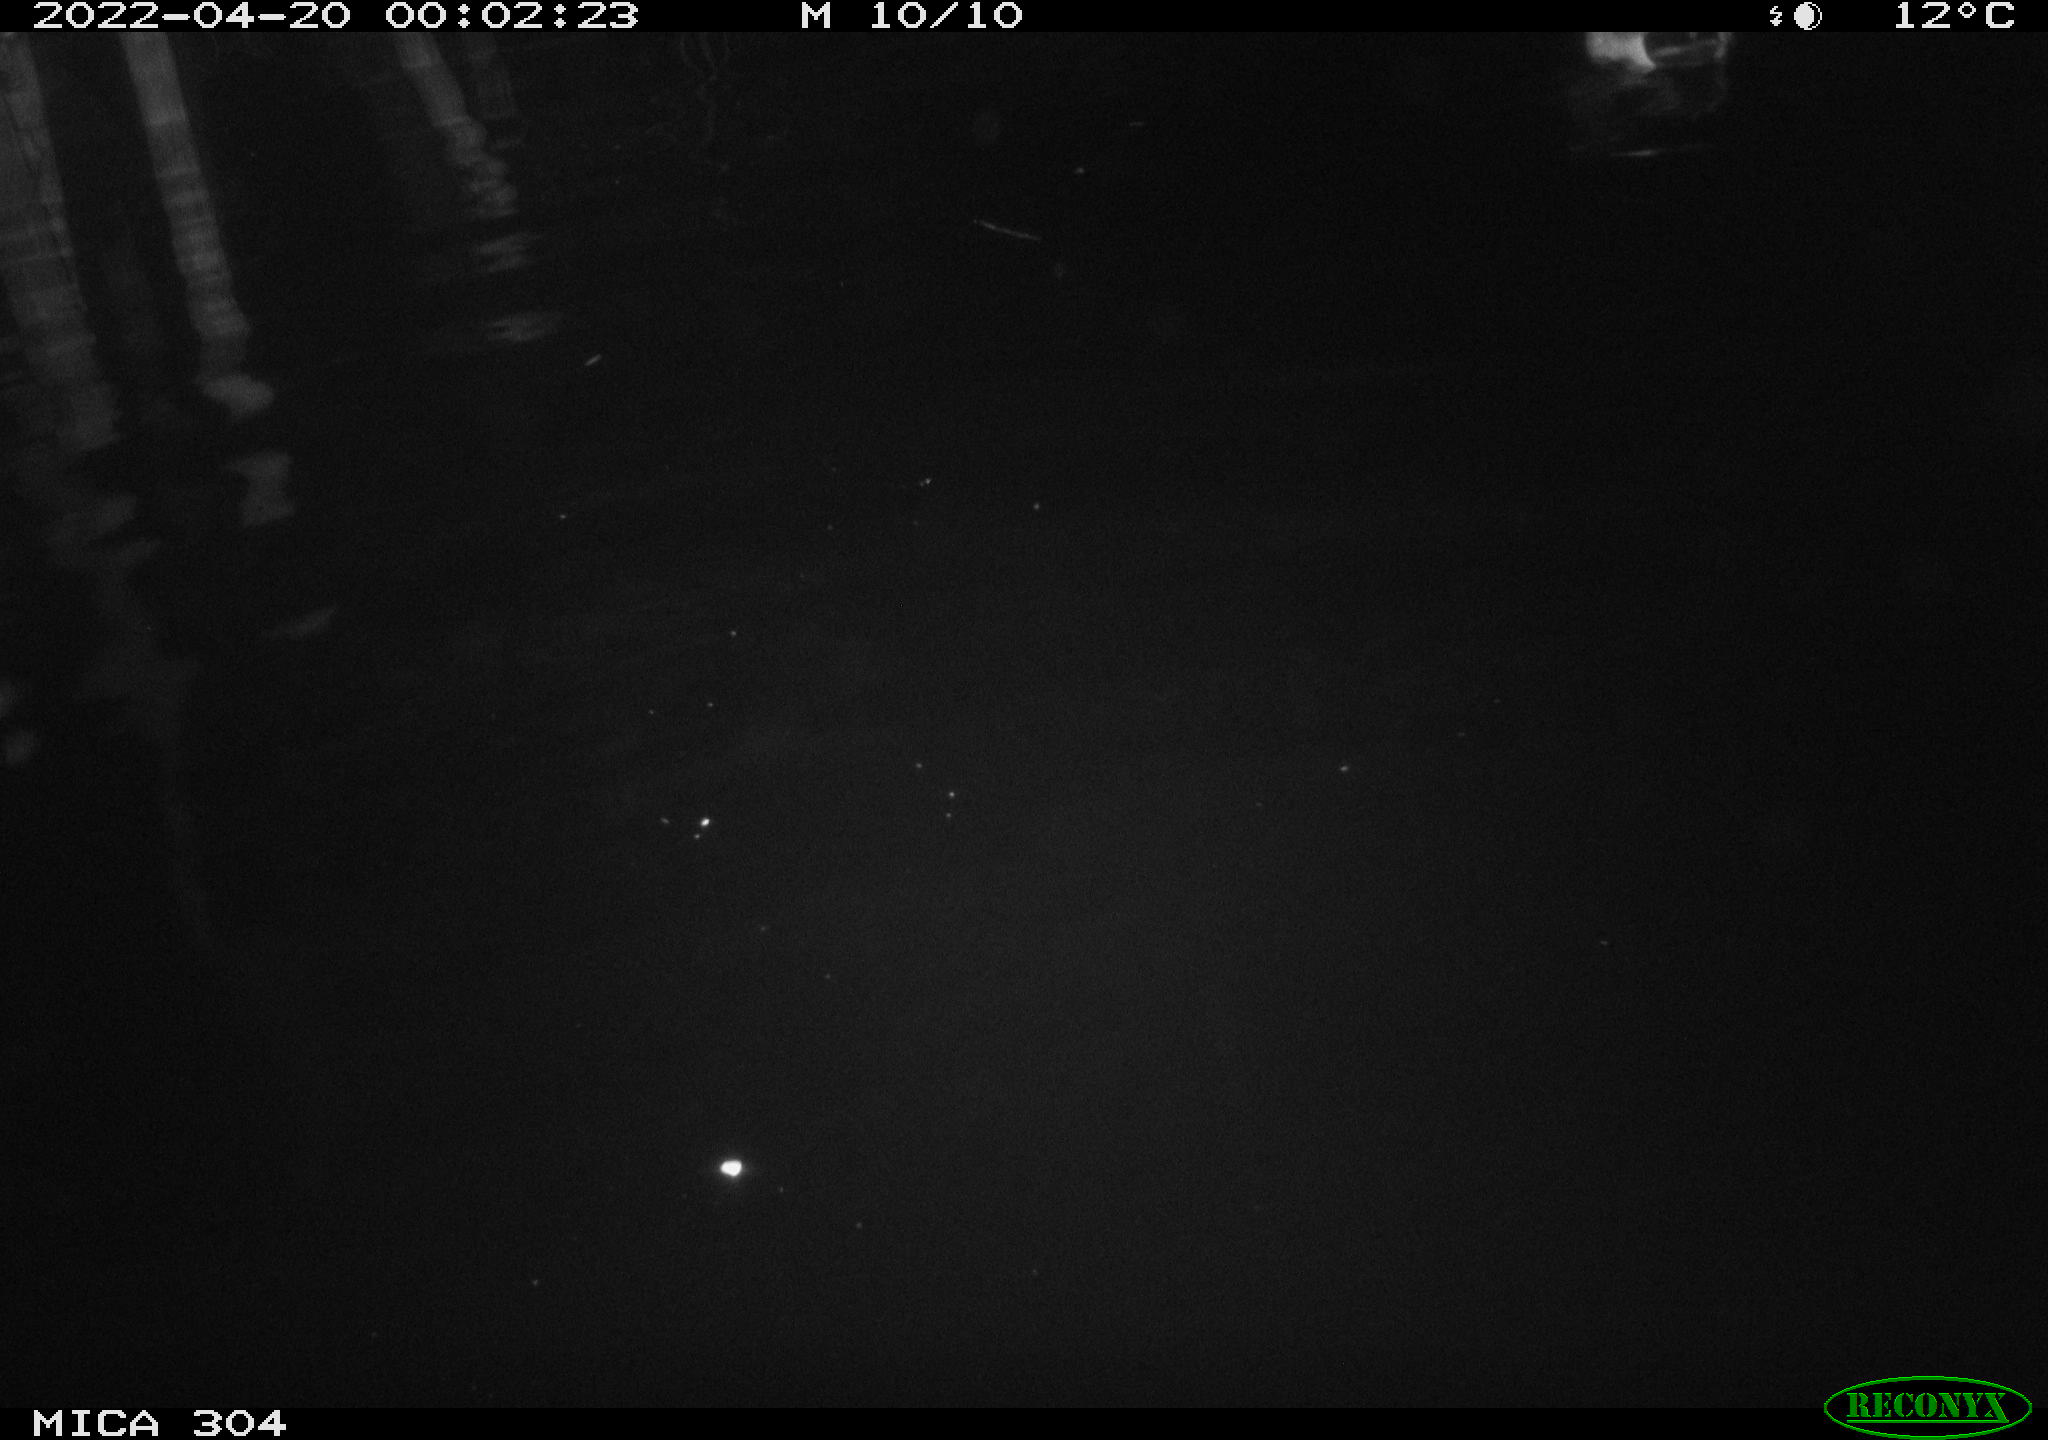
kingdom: Animalia
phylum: Chordata
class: Aves
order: Anseriformes
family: Anatidae
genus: Anas
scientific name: Anas platyrhynchos
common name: Mallard
